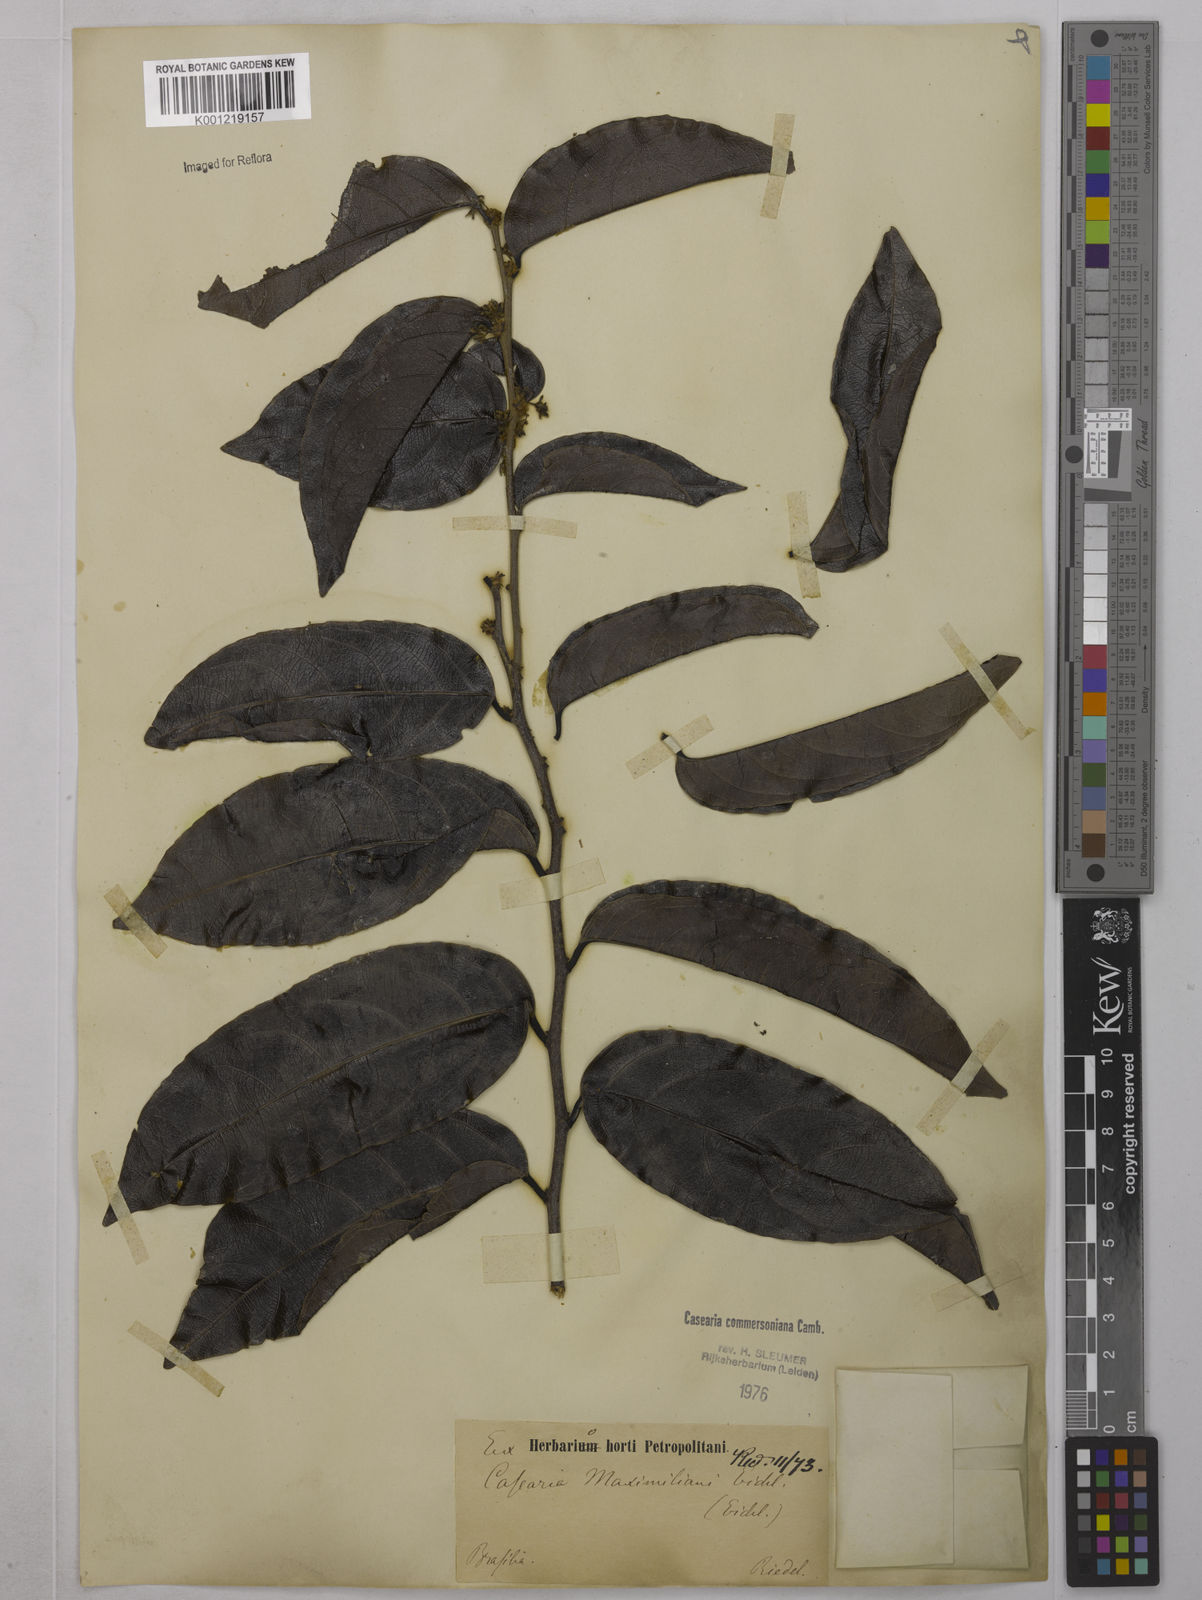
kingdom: Plantae
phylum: Tracheophyta
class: Magnoliopsida
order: Malpighiales
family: Salicaceae
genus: Piparea
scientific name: Piparea dentata
